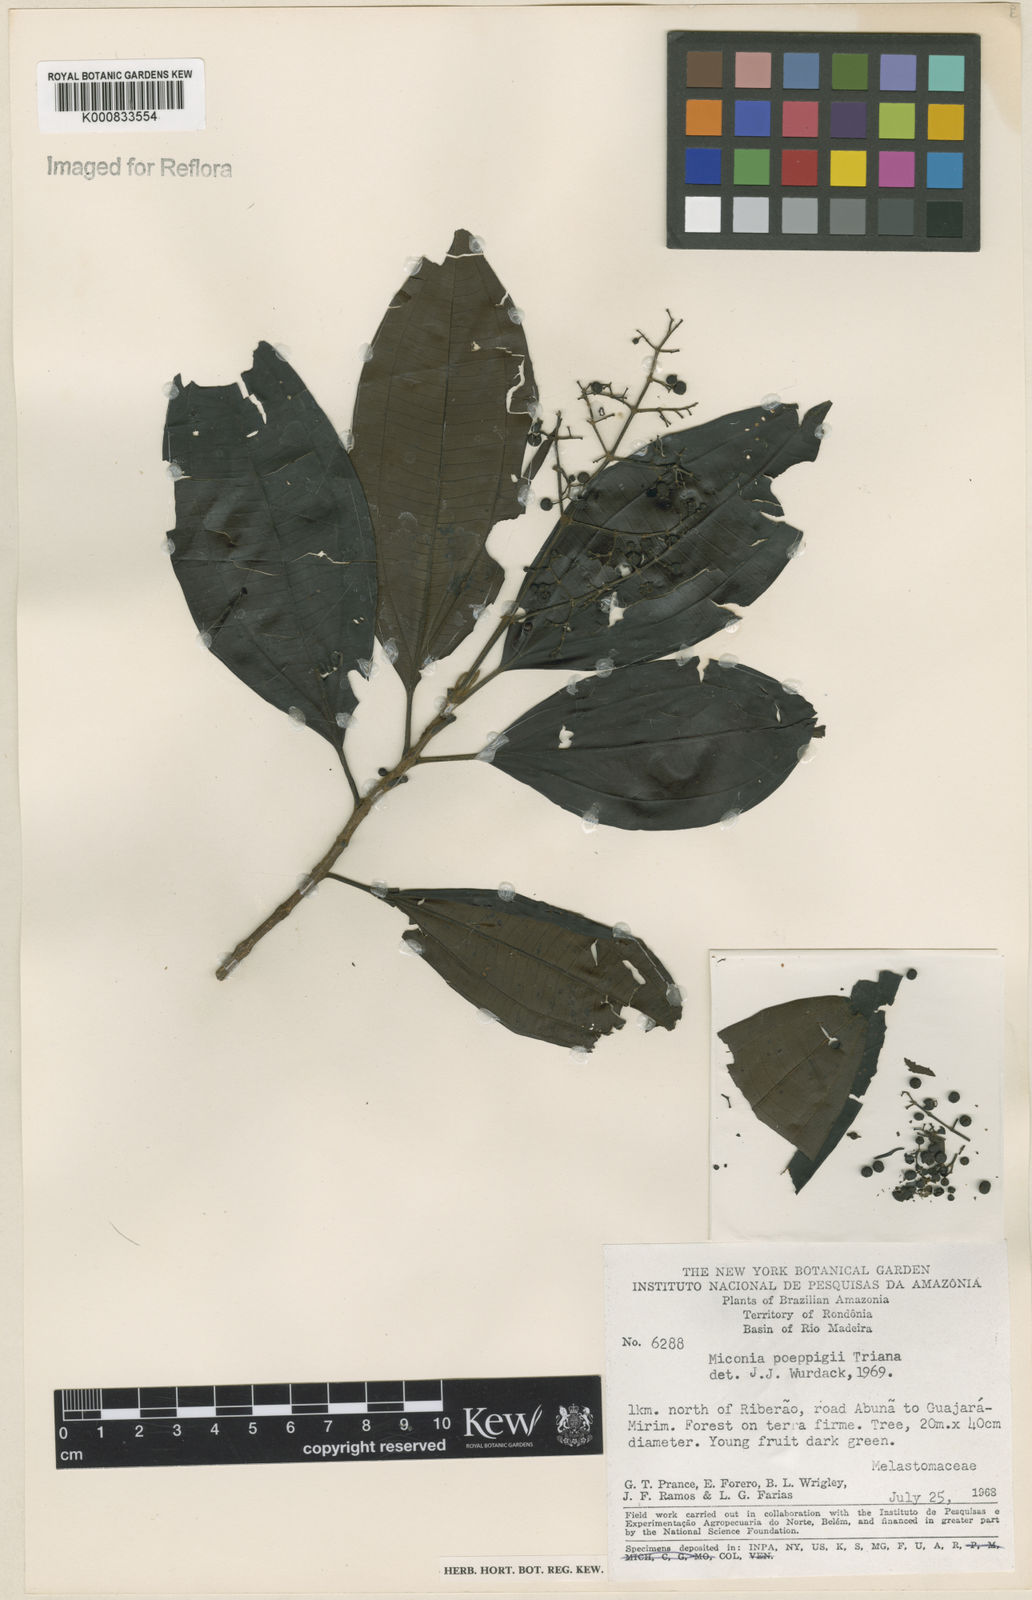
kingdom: Plantae
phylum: Tracheophyta
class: Magnoliopsida
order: Myrtales
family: Melastomataceae
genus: Miconia
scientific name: Miconia poeppigii
